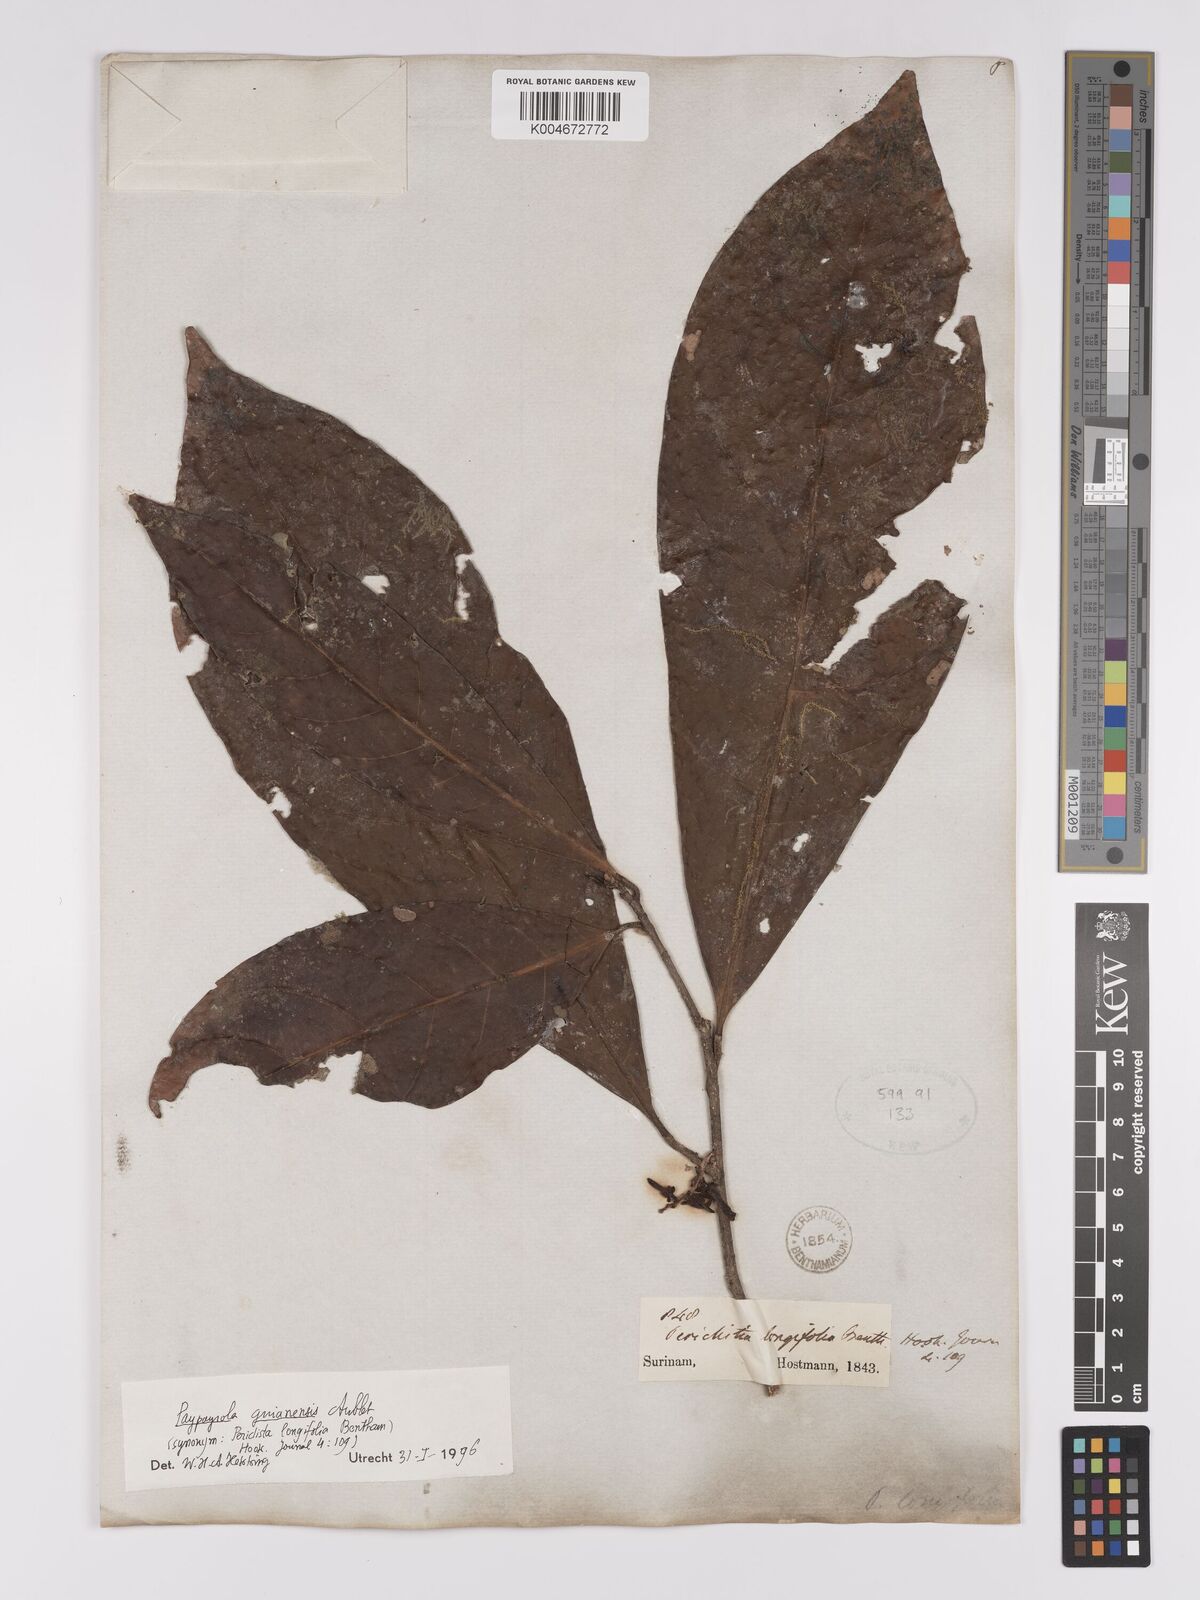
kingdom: Plantae
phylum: Tracheophyta
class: Magnoliopsida
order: Malpighiales
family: Violaceae
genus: Paypayrola
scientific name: Paypayrola guianensis
